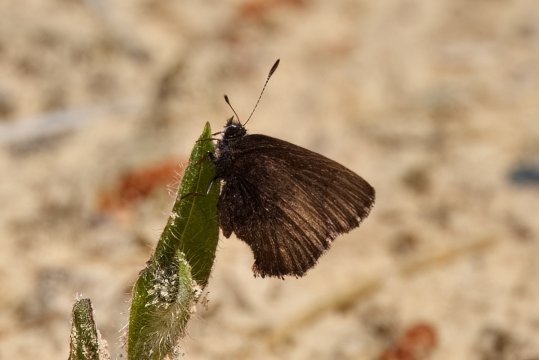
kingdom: Animalia
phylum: Arthropoda
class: Insecta
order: Lepidoptera
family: Lycaenidae
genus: Incisalia
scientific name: Incisalia irioides
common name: Brown Elfin
